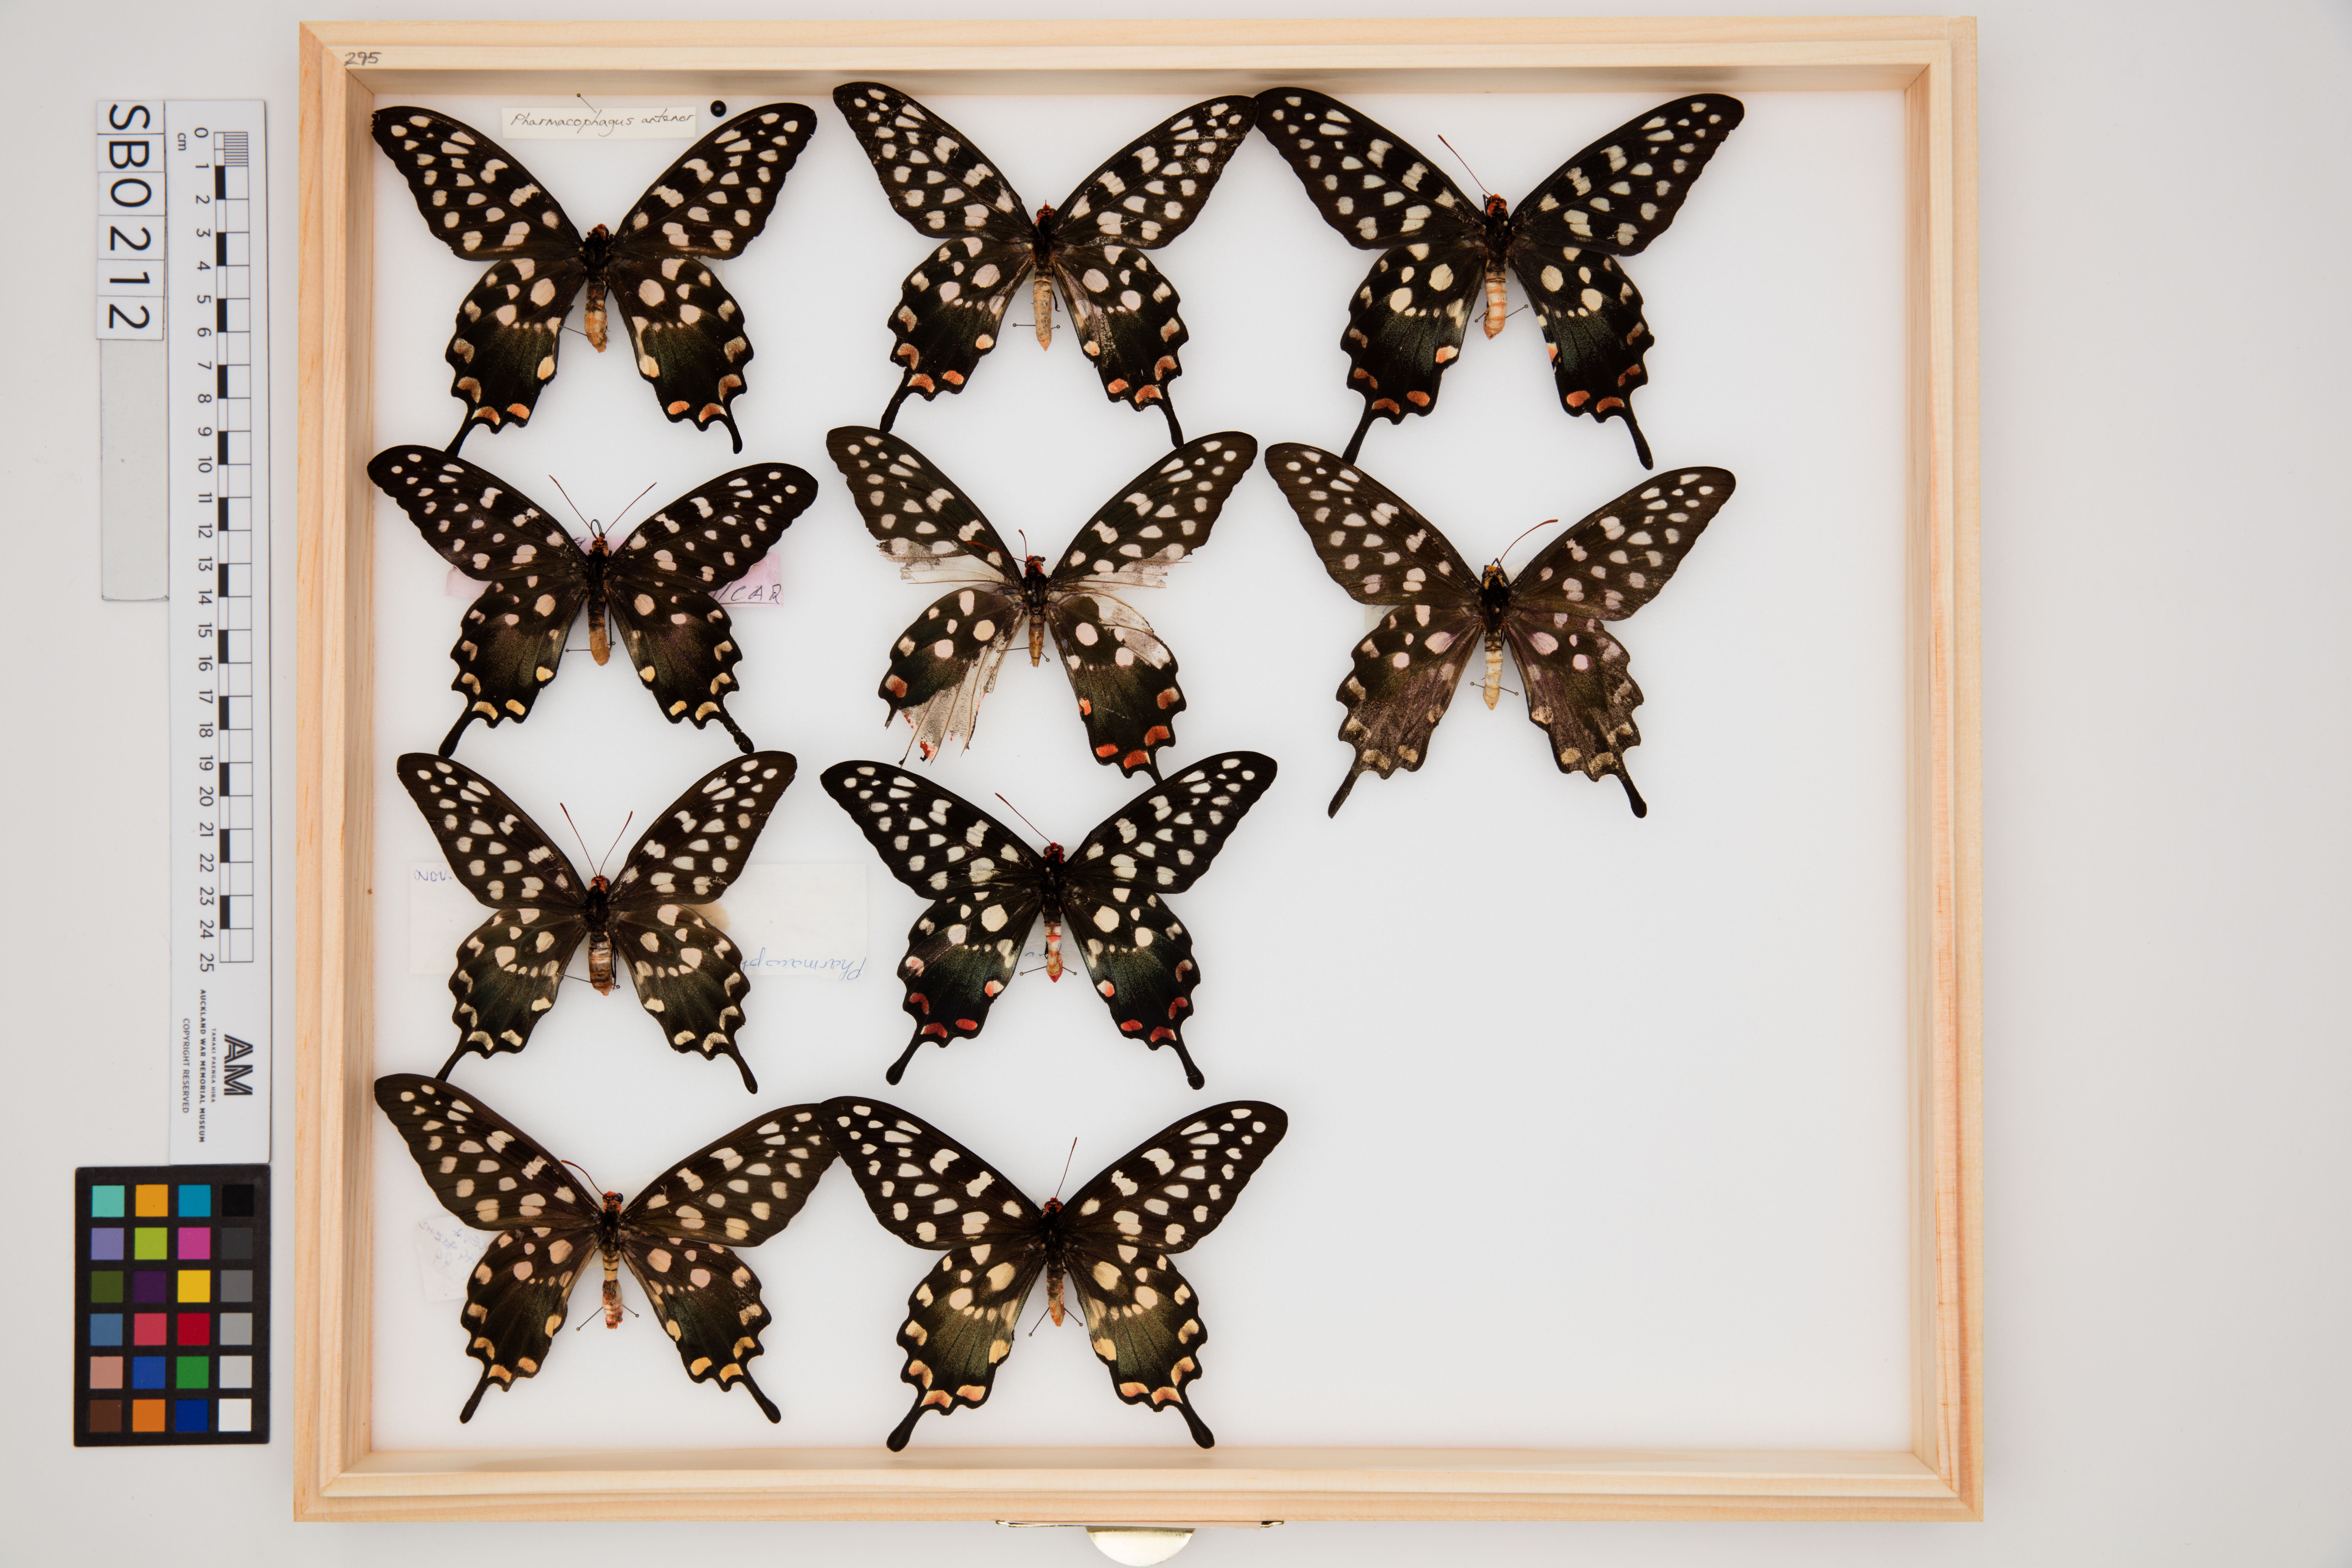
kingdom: Animalia
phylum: Arthropoda
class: Insecta
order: Lepidoptera
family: Papilionidae
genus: Pharmacophagus
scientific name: Pharmacophagus antenor
